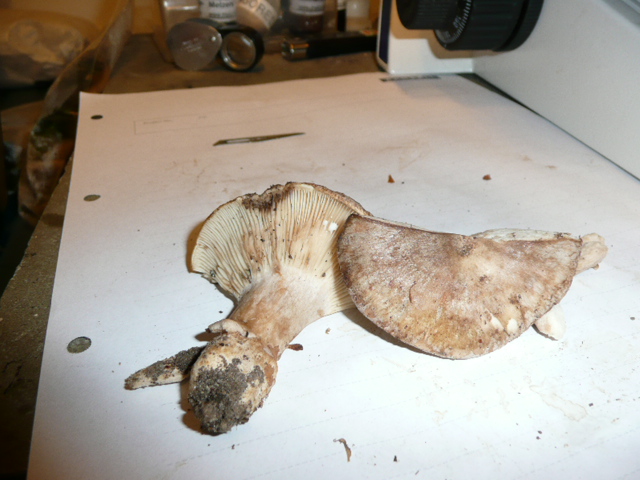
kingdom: Fungi
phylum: Basidiomycota
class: Agaricomycetes
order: Russulales
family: Russulaceae
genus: Lactarius
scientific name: Lactarius quietus
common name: ege-mælkehat
